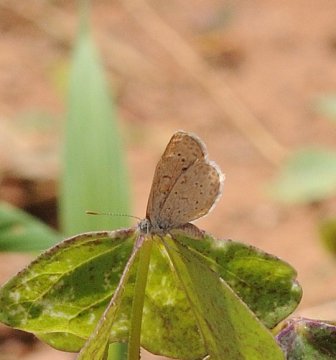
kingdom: Animalia
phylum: Arthropoda
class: Insecta
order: Lepidoptera
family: Lycaenidae
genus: Zizeeria
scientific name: Zizeeria knysna
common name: Dark Grass Blue
